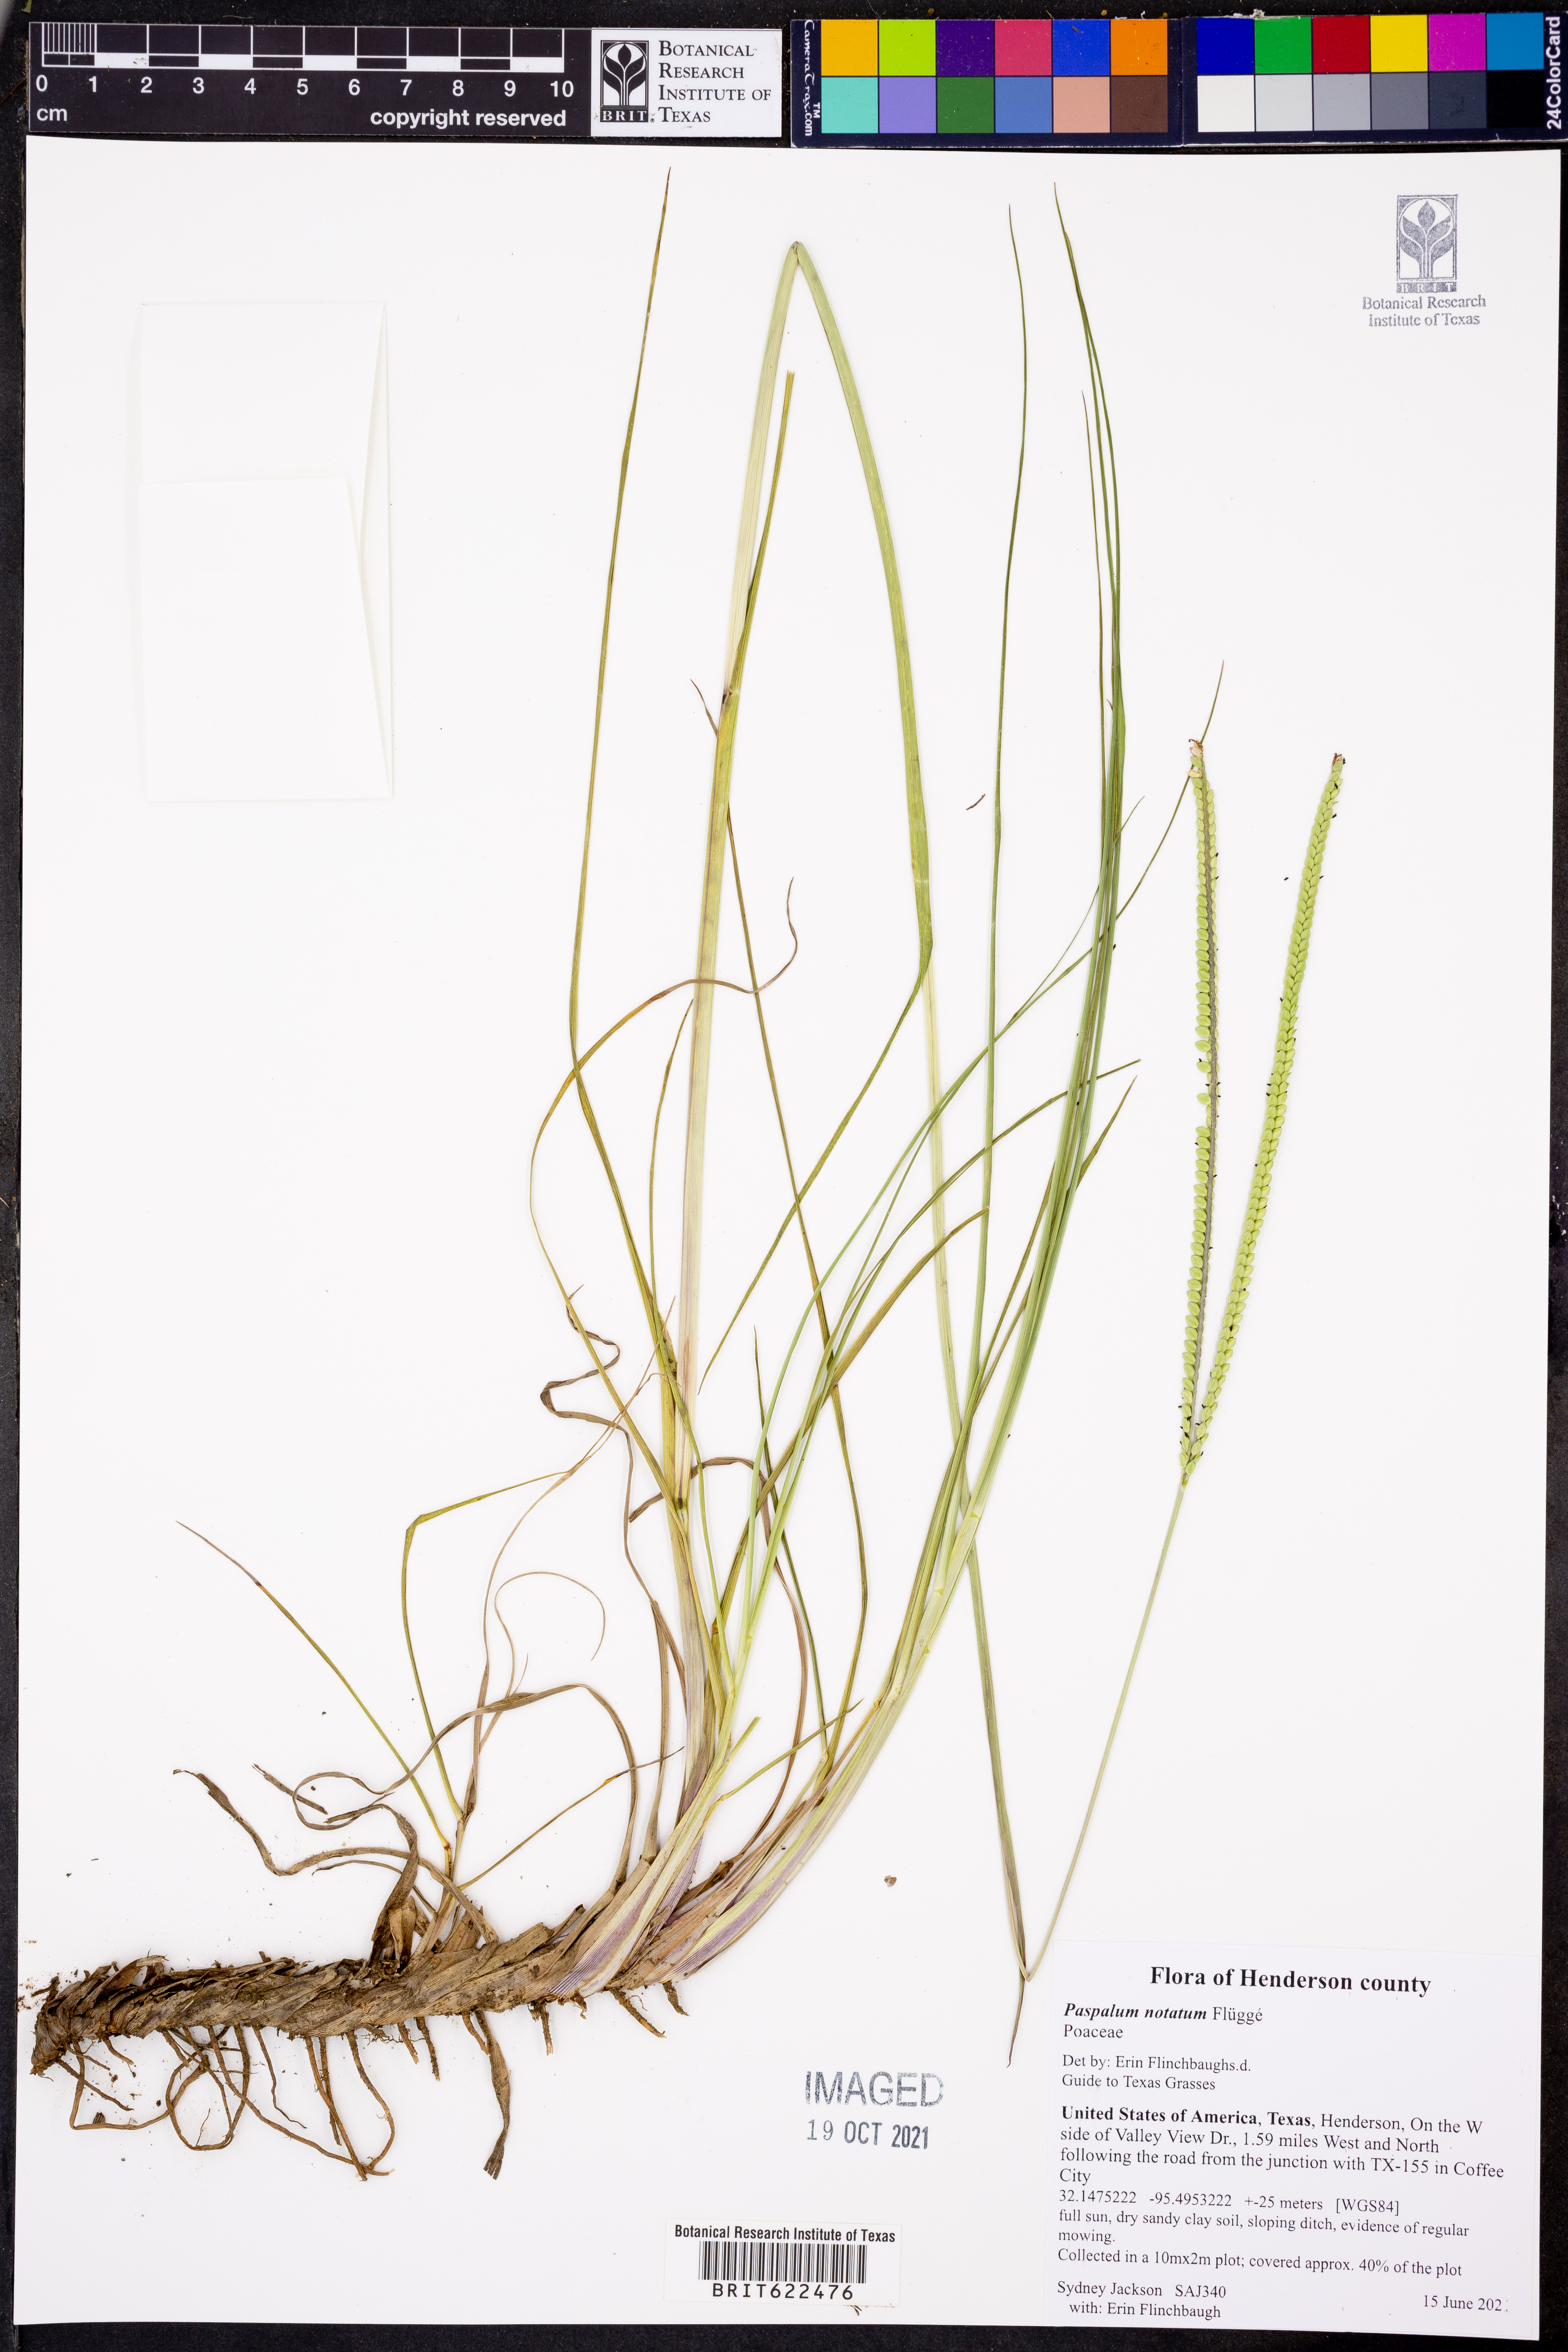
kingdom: Plantae
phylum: Tracheophyta
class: Liliopsida
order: Poales
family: Poaceae
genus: Paspalum
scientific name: Paspalum notatum
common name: Bahiagrass
